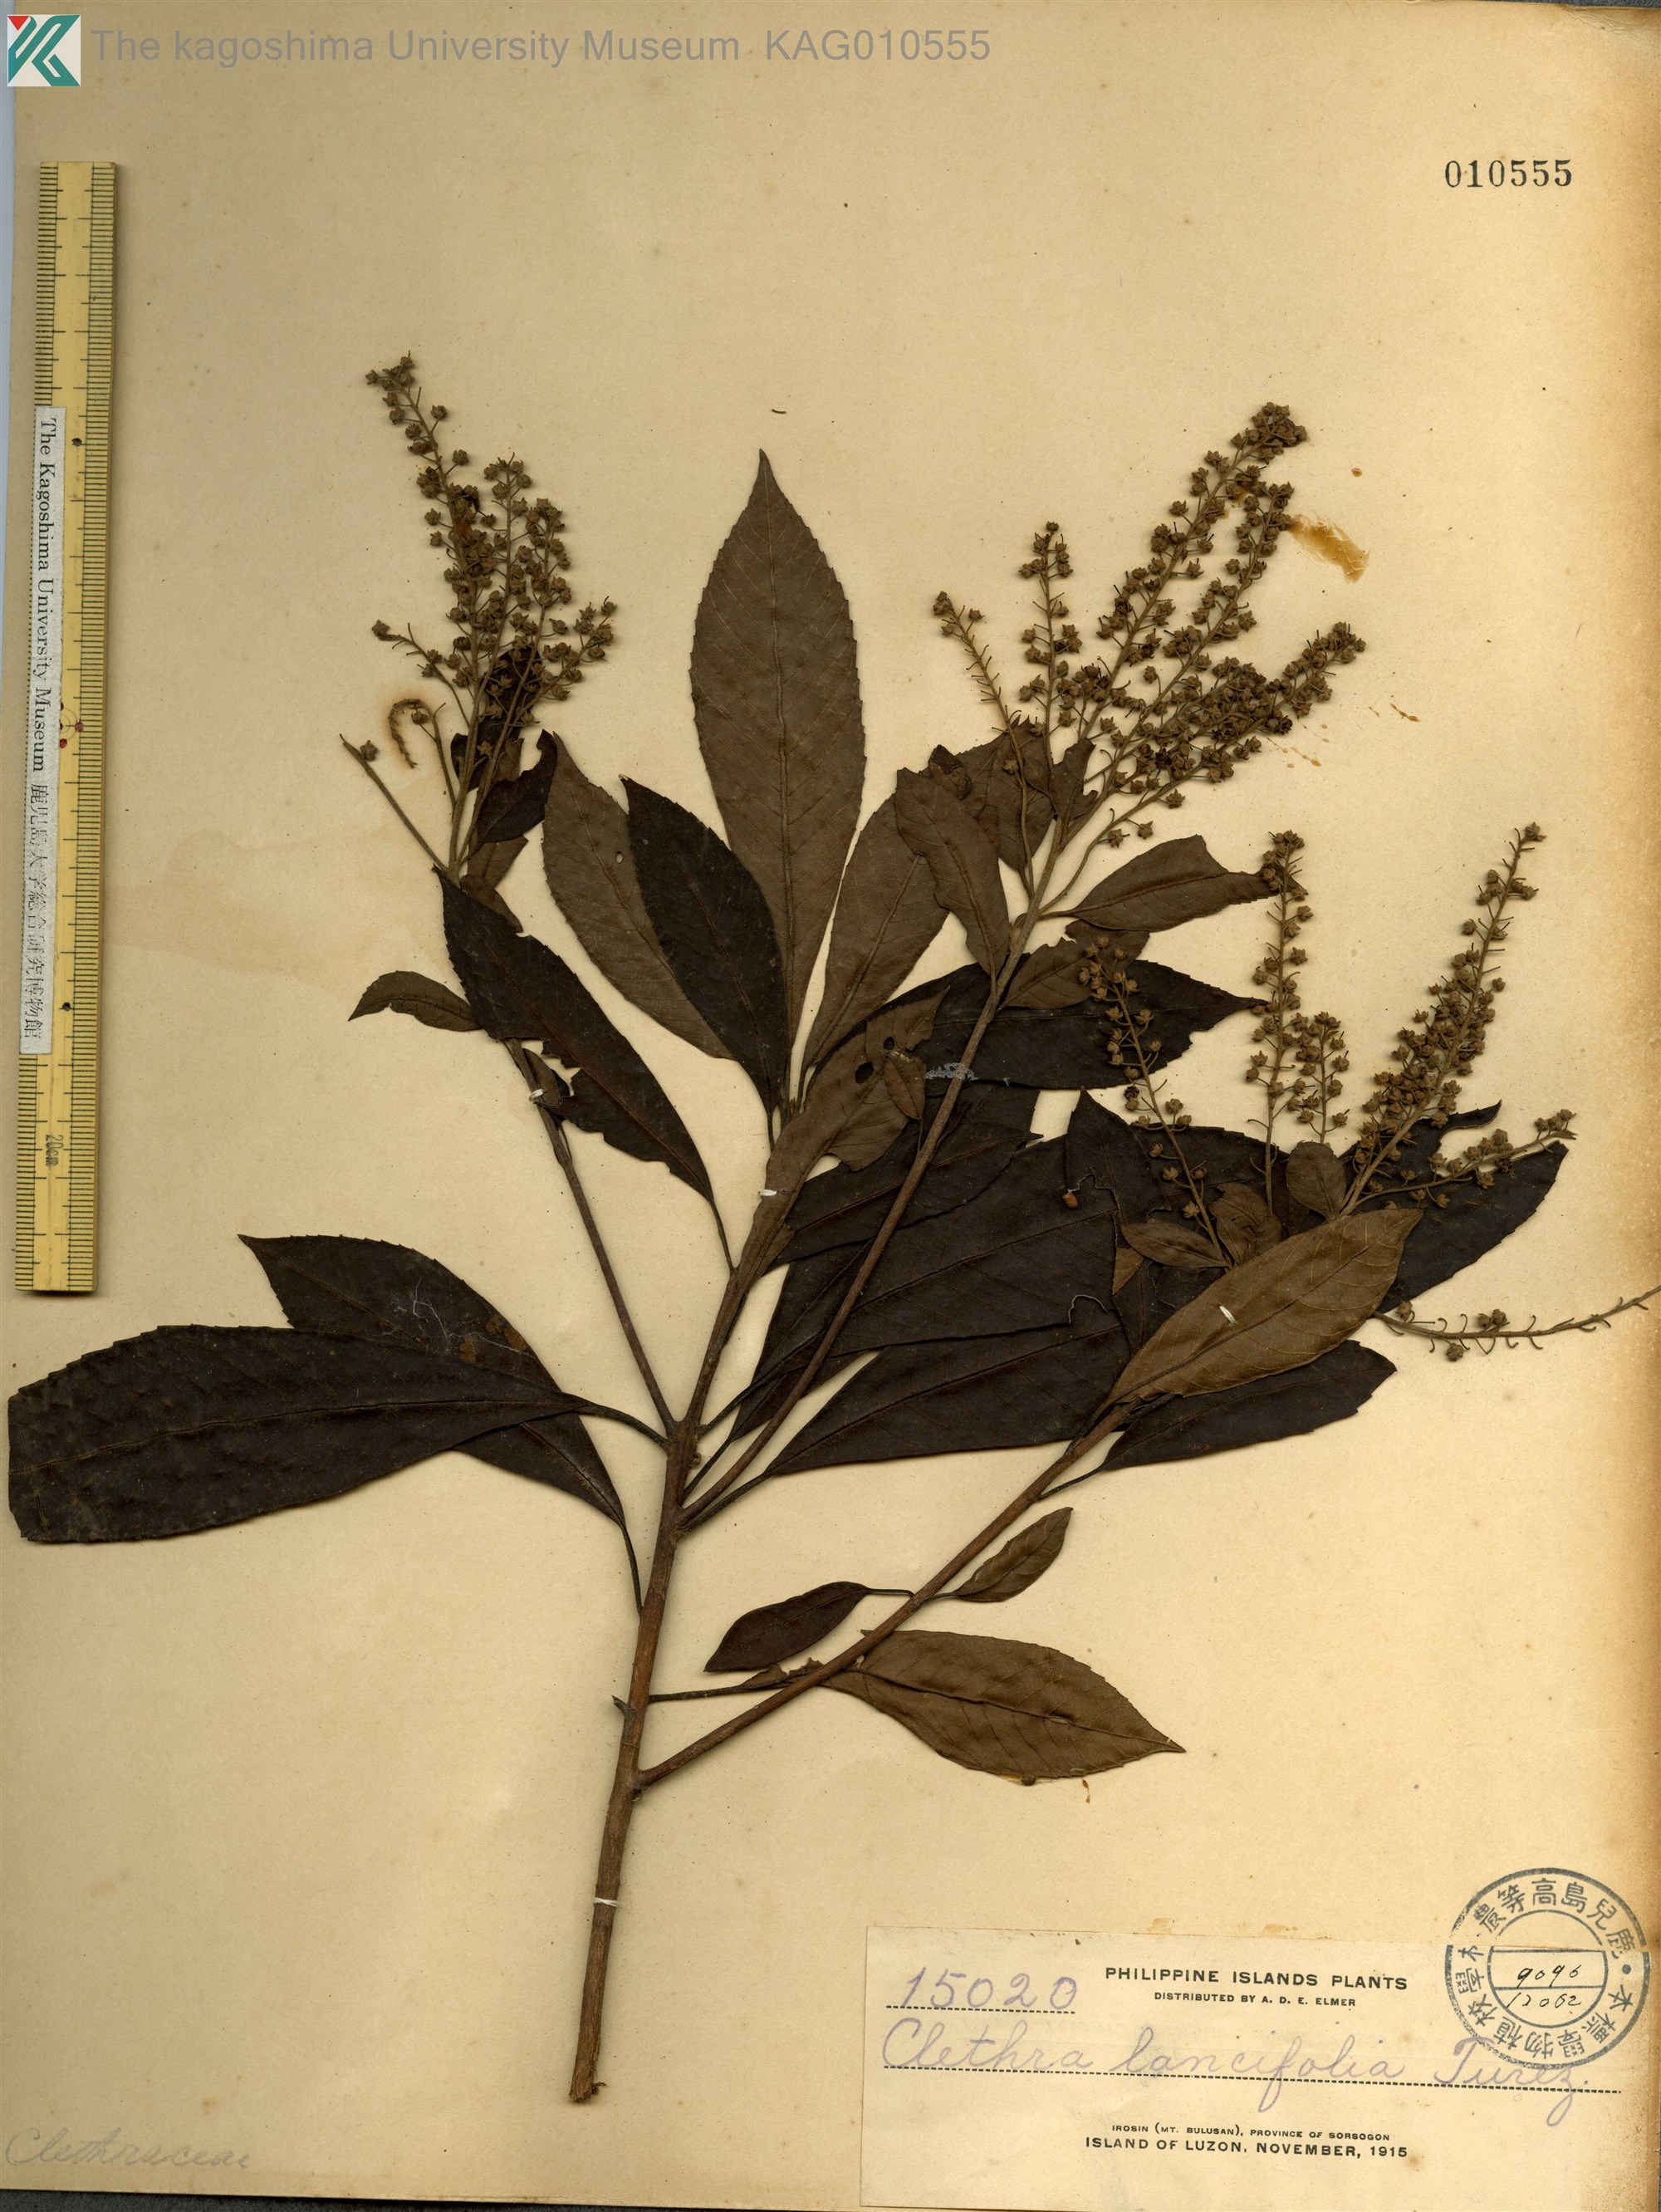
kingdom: Plantae
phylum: Tracheophyta
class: Magnoliopsida
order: Ericales
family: Clethraceae
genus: Clethra
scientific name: Clethra canescens
